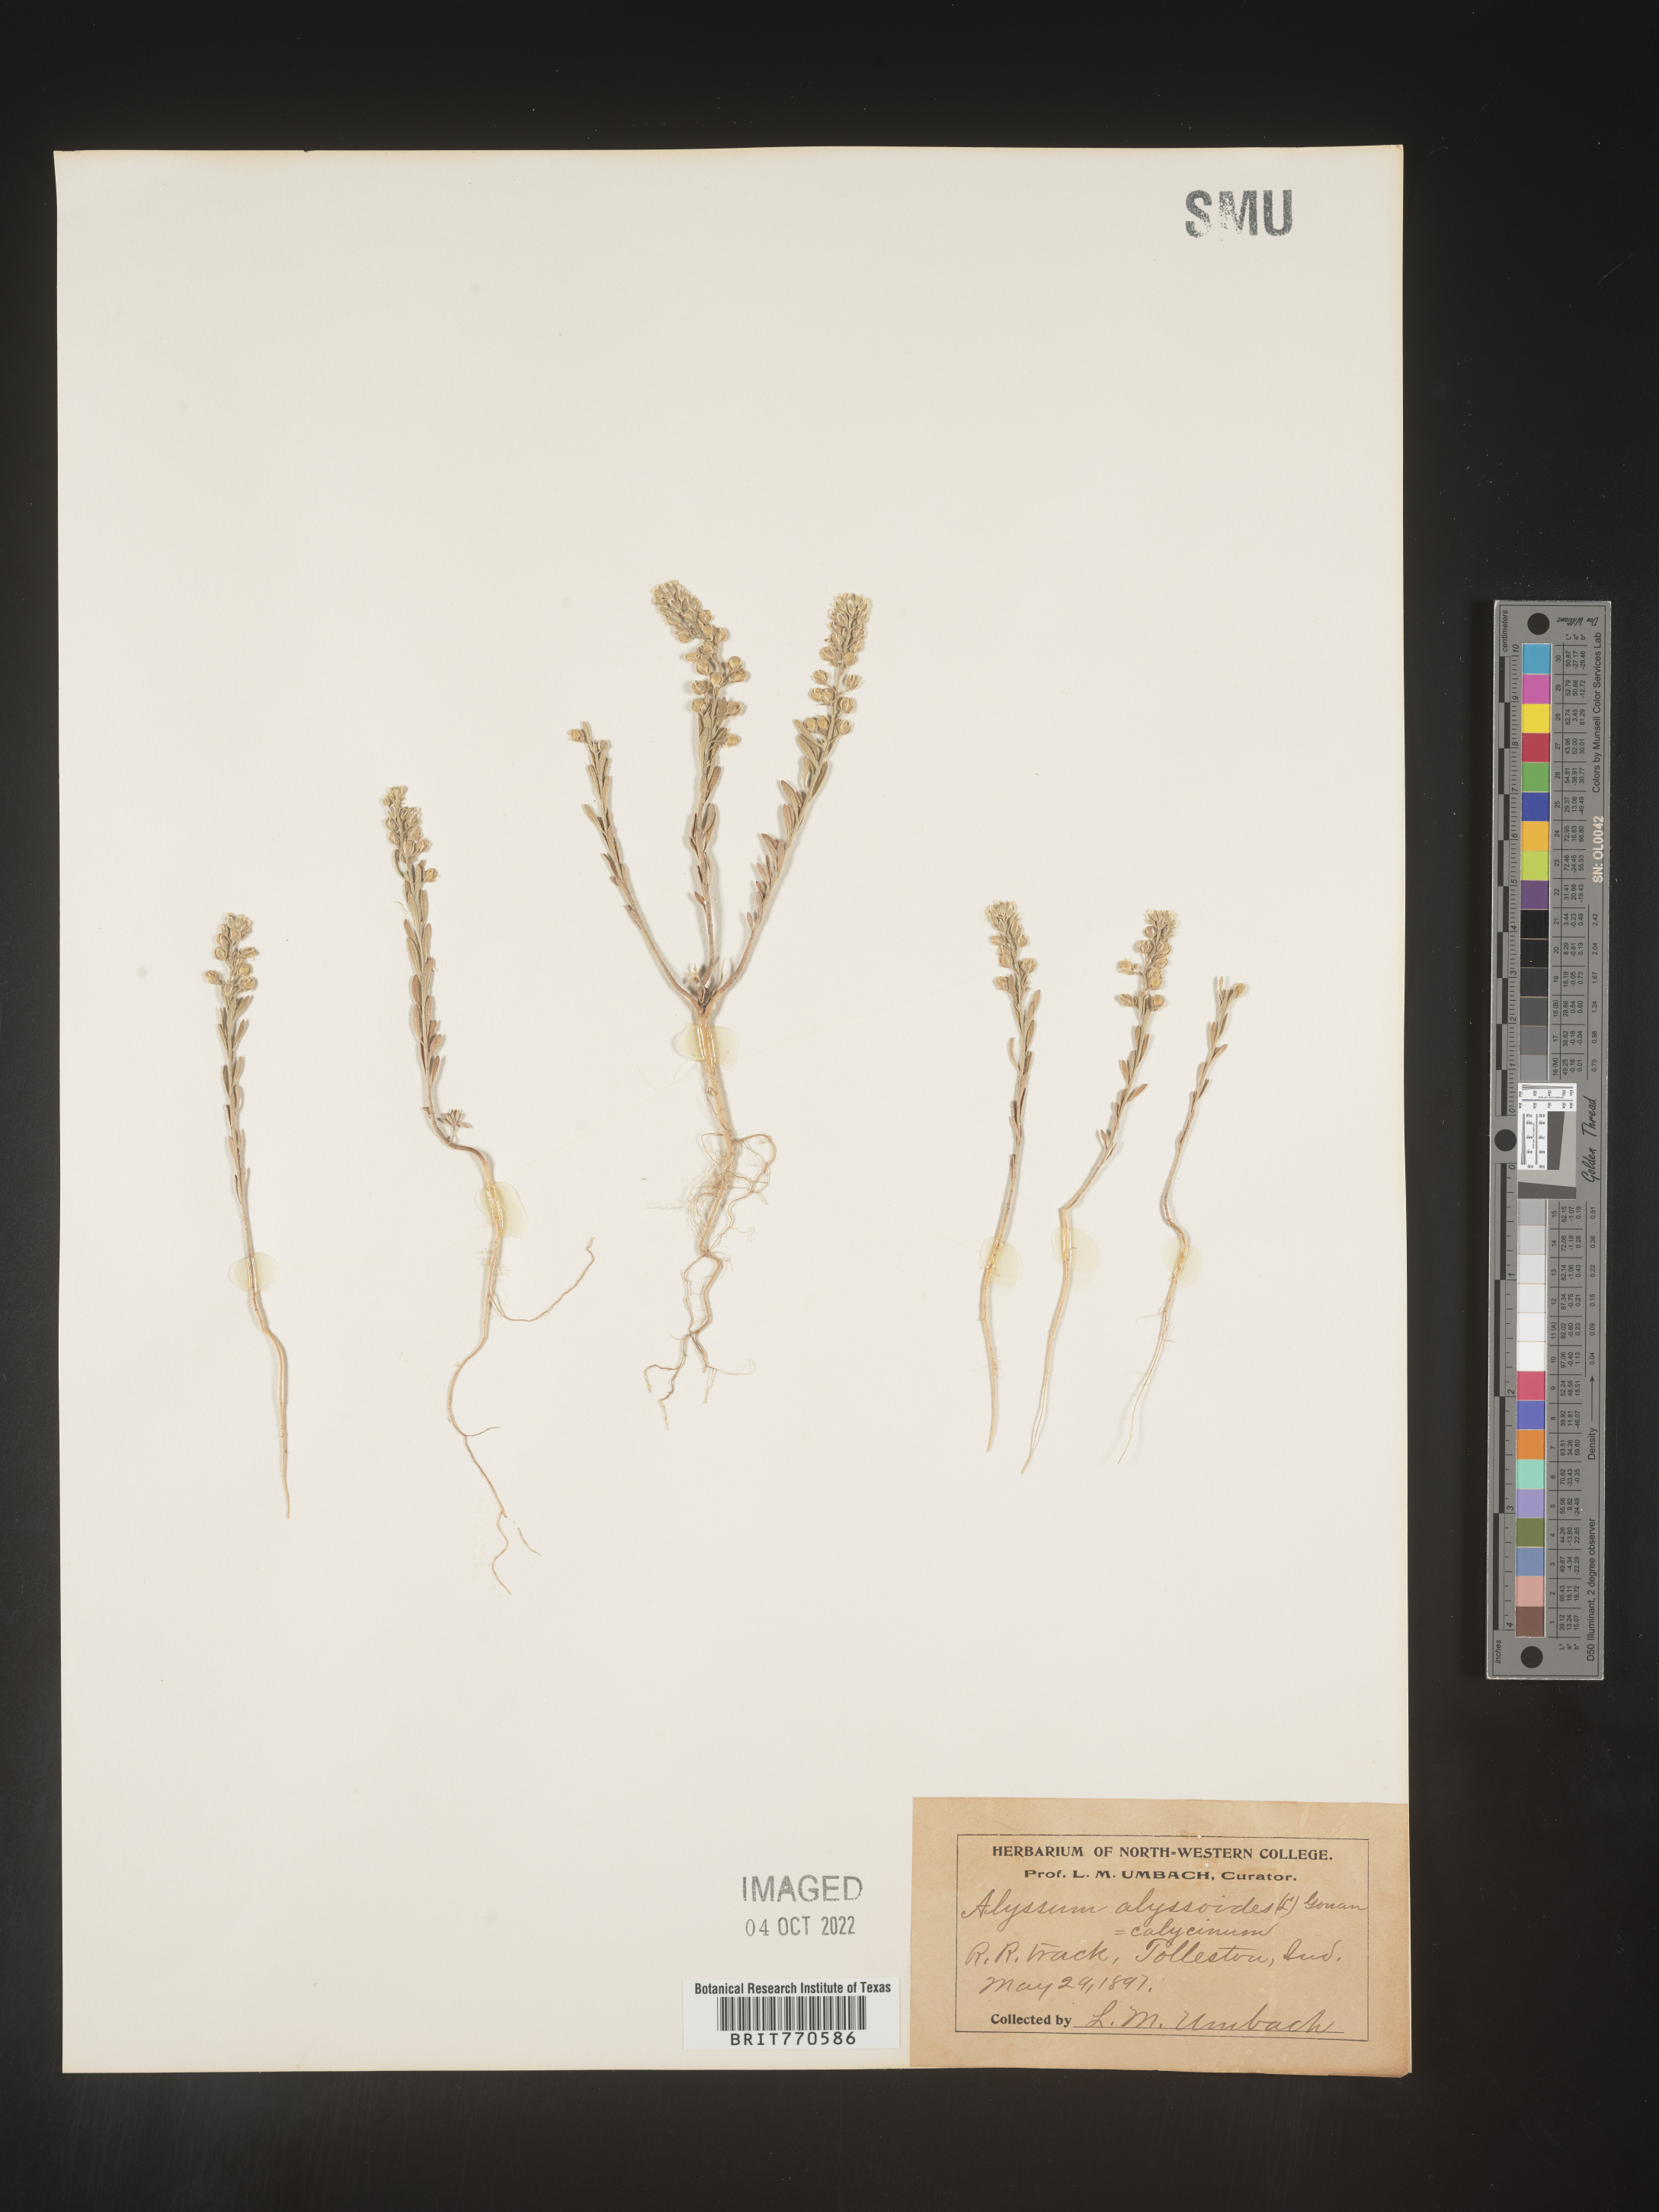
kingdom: Plantae
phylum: Tracheophyta
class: Magnoliopsida
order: Brassicales
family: Brassicaceae
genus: Alyssum
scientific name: Alyssum alyssoides
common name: Small alison
